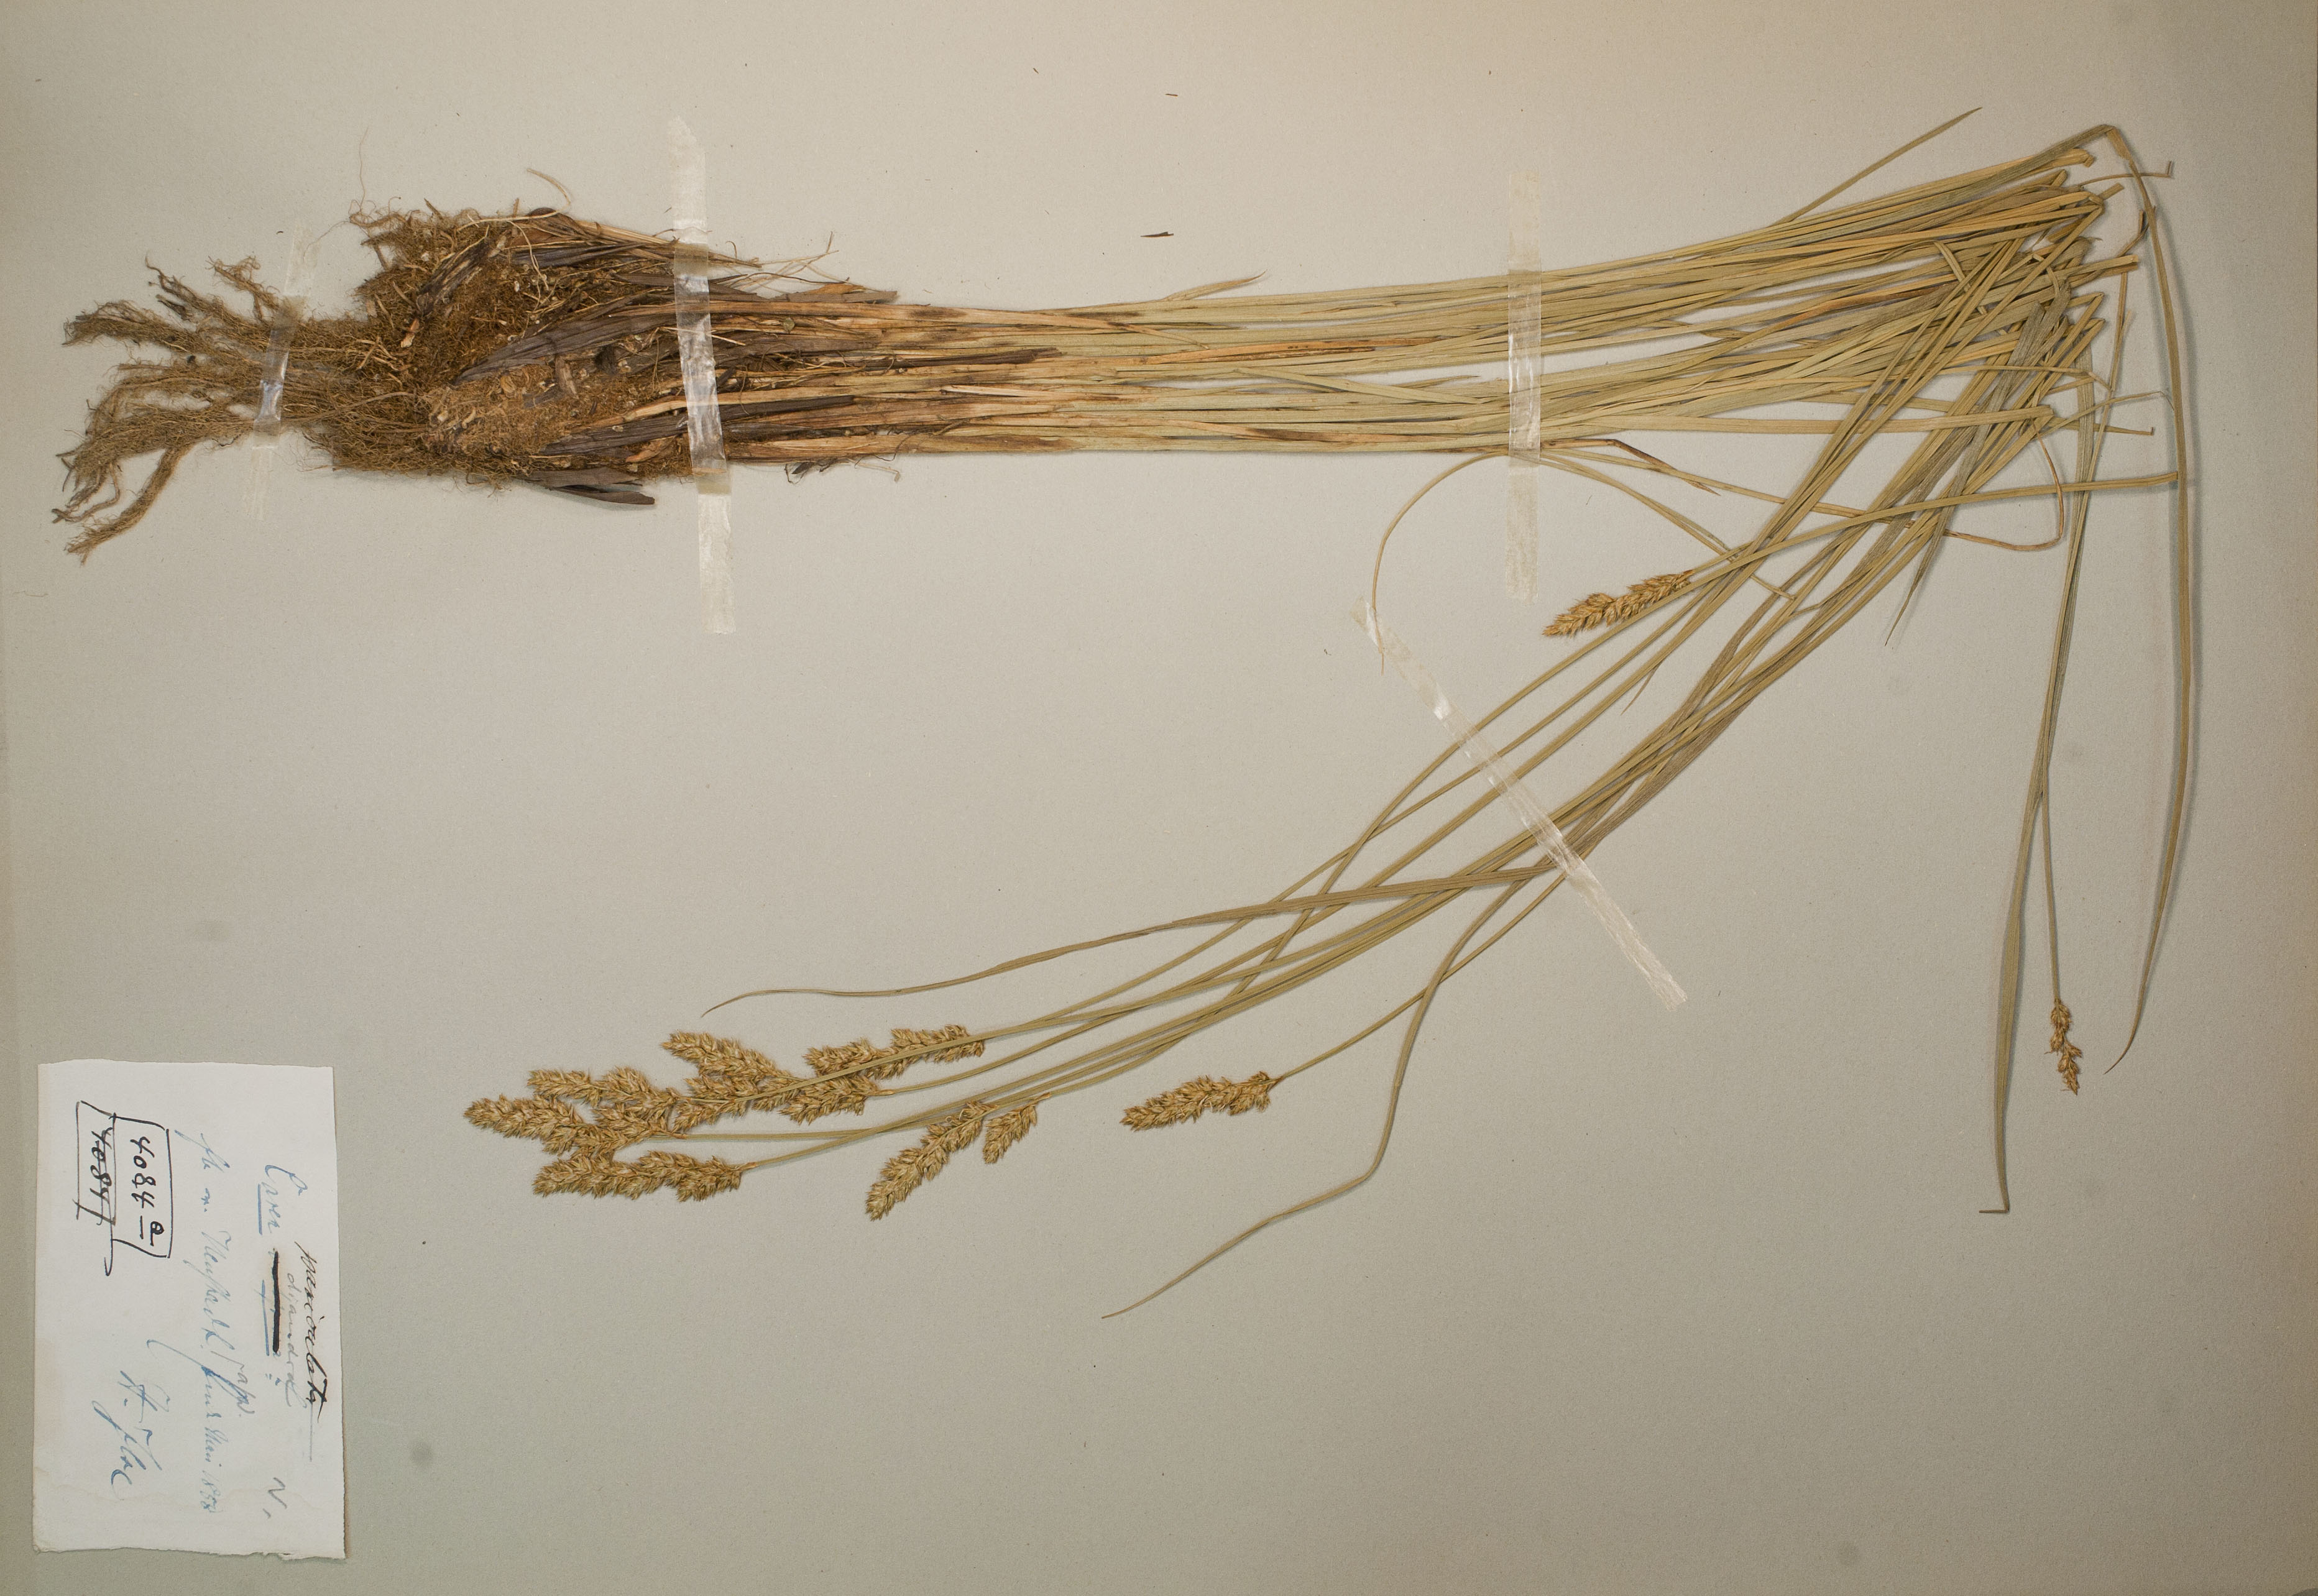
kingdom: Plantae
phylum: Tracheophyta
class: Liliopsida
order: Poales
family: Cyperaceae
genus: Carex
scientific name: Carex paniculata
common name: Greater tussock-sedge
